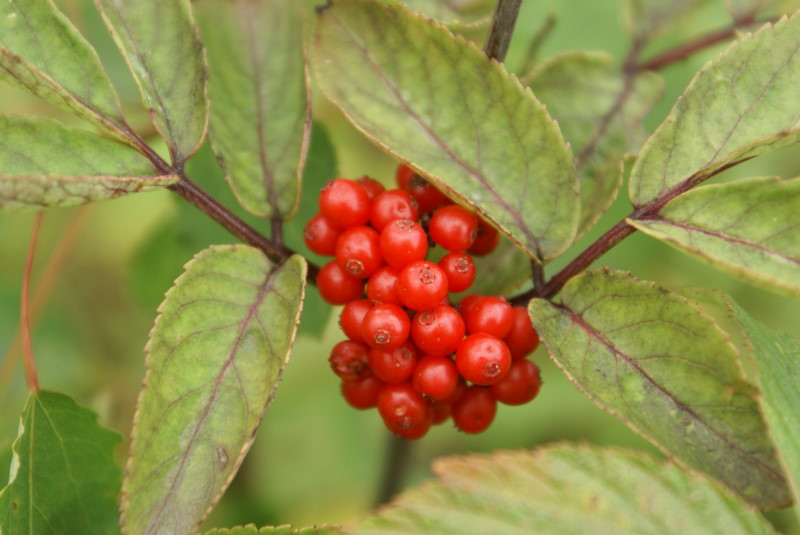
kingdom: Plantae
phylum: Tracheophyta
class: Magnoliopsida
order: Dipsacales
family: Viburnaceae
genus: Sambucus
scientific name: Sambucus racemosa
